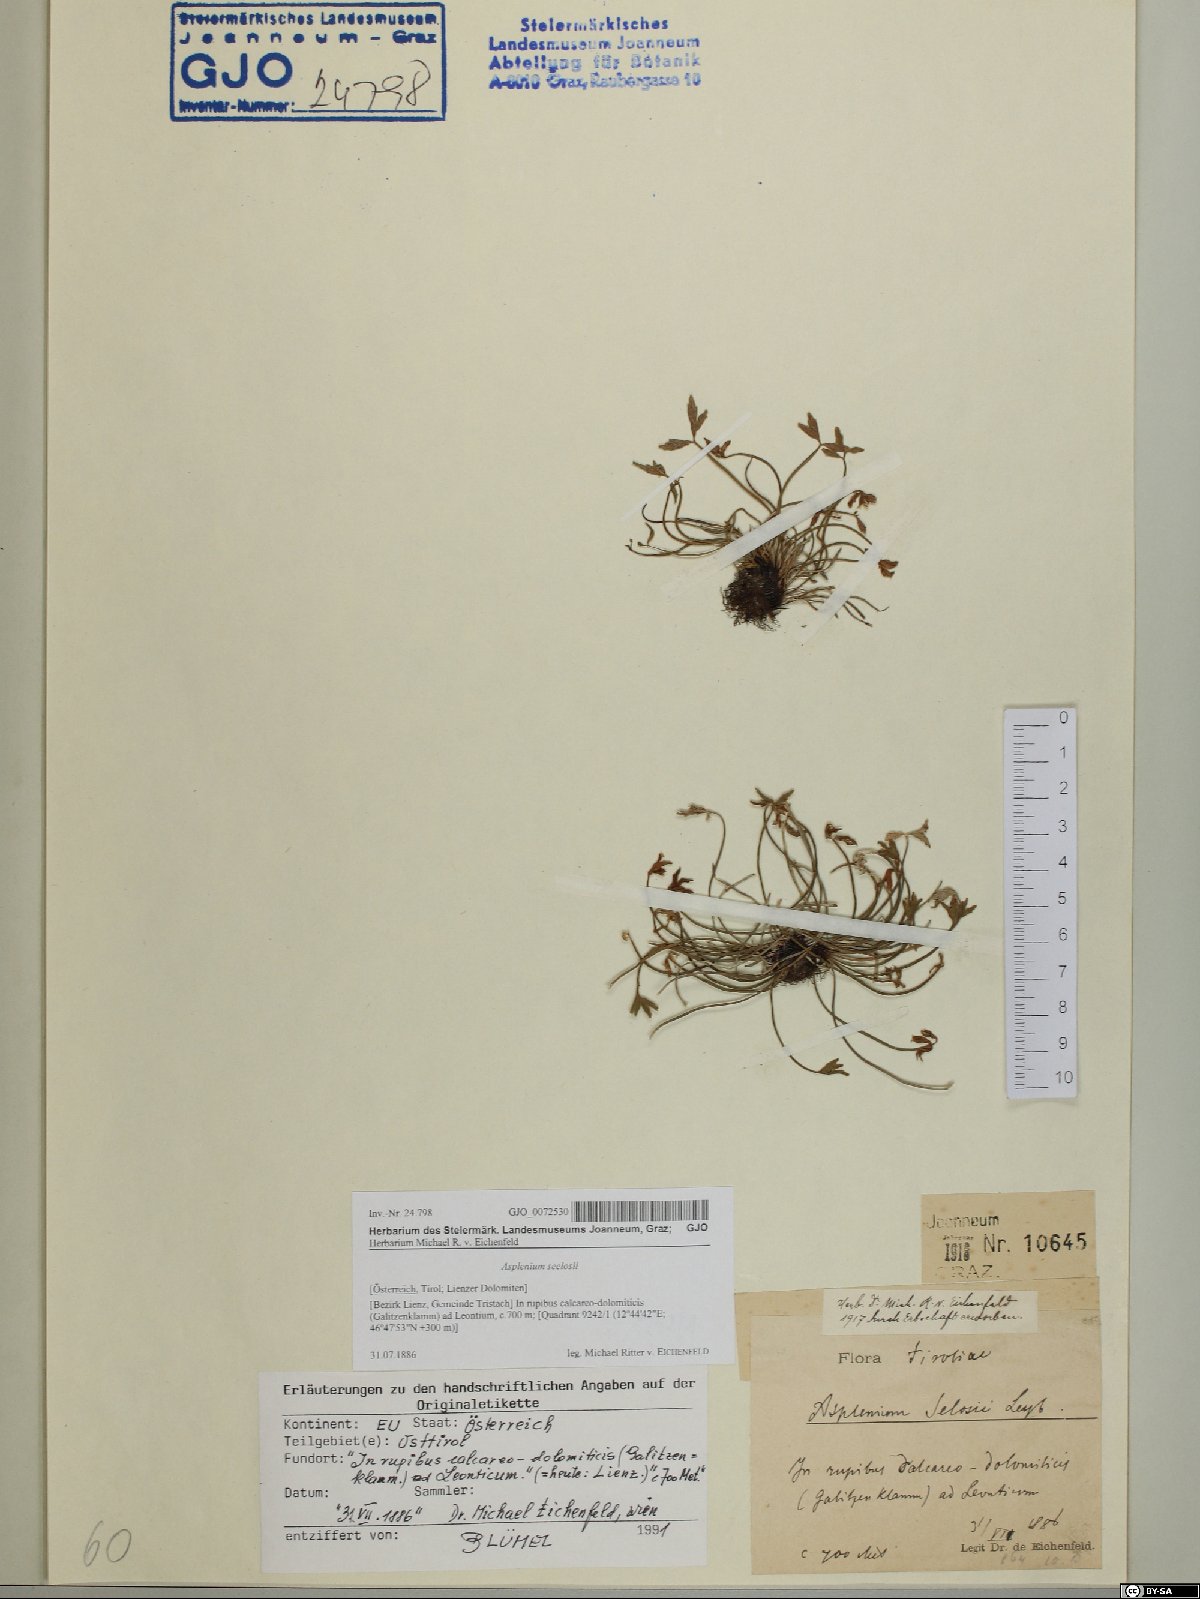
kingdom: Plantae
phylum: Tracheophyta
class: Polypodiopsida
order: Polypodiales
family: Aspleniaceae
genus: Asplenium
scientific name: Asplenium seelosii
